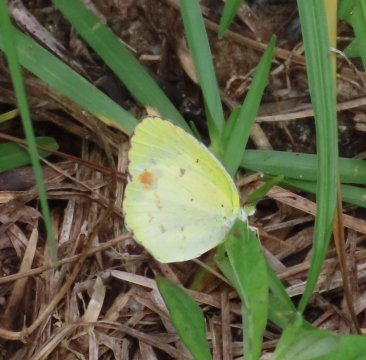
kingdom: Animalia
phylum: Arthropoda
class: Insecta
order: Lepidoptera
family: Pieridae
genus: Pyrisitia
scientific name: Pyrisitia lisa
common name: Little Yellow
